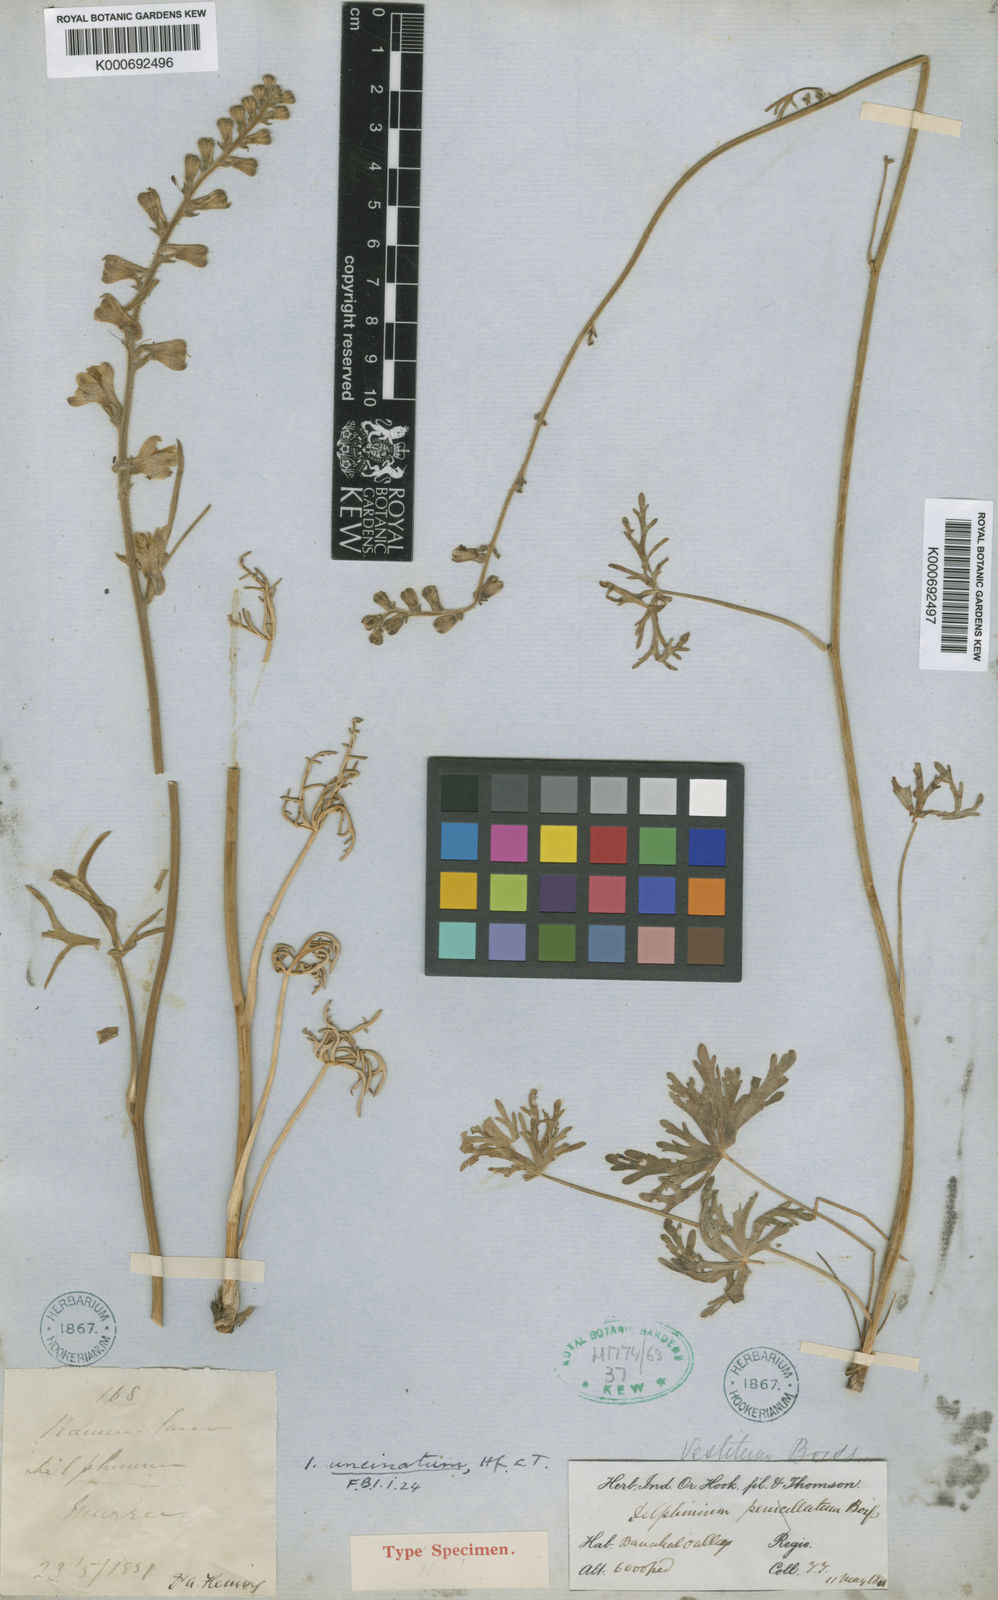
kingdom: Plantae
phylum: Tracheophyta
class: Magnoliopsida
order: Ranunculales
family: Ranunculaceae
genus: Delphinium
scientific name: Delphinium uncinatum
